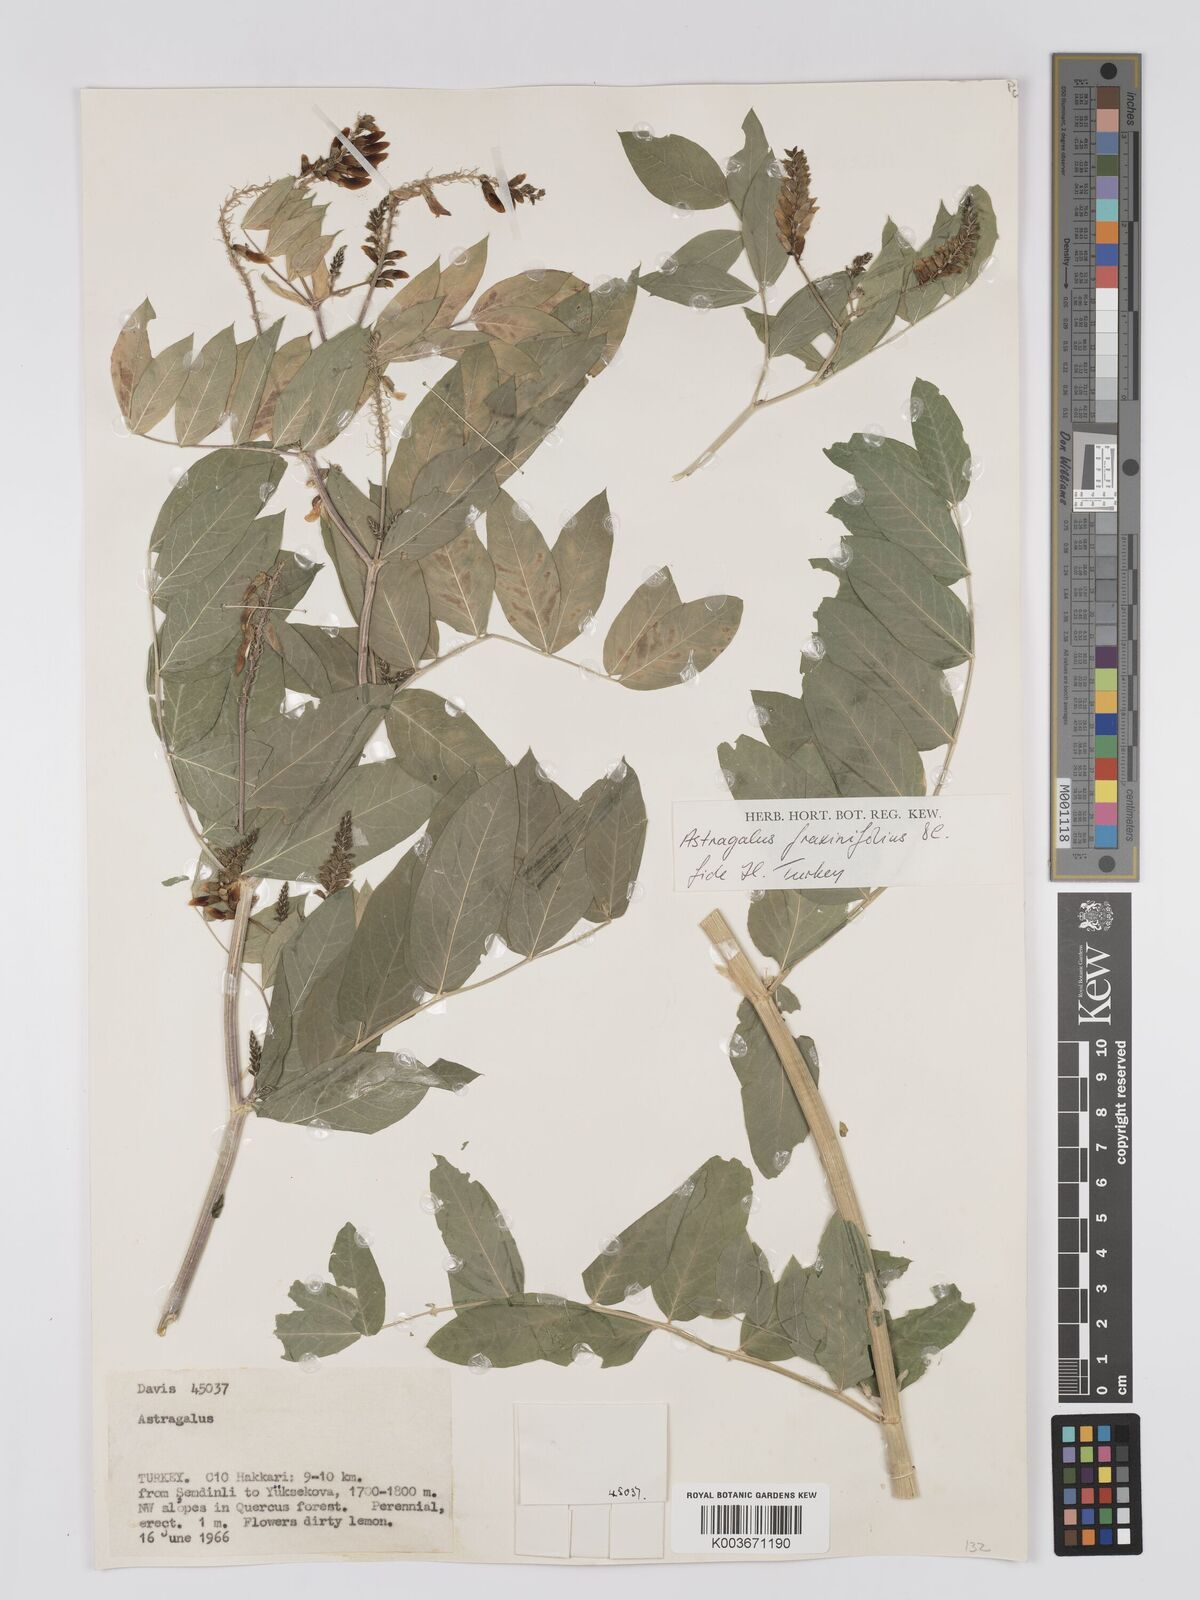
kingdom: Plantae
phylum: Tracheophyta
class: Magnoliopsida
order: Fabales
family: Fabaceae
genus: Astragalus
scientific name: Astragalus fraxinifolius
